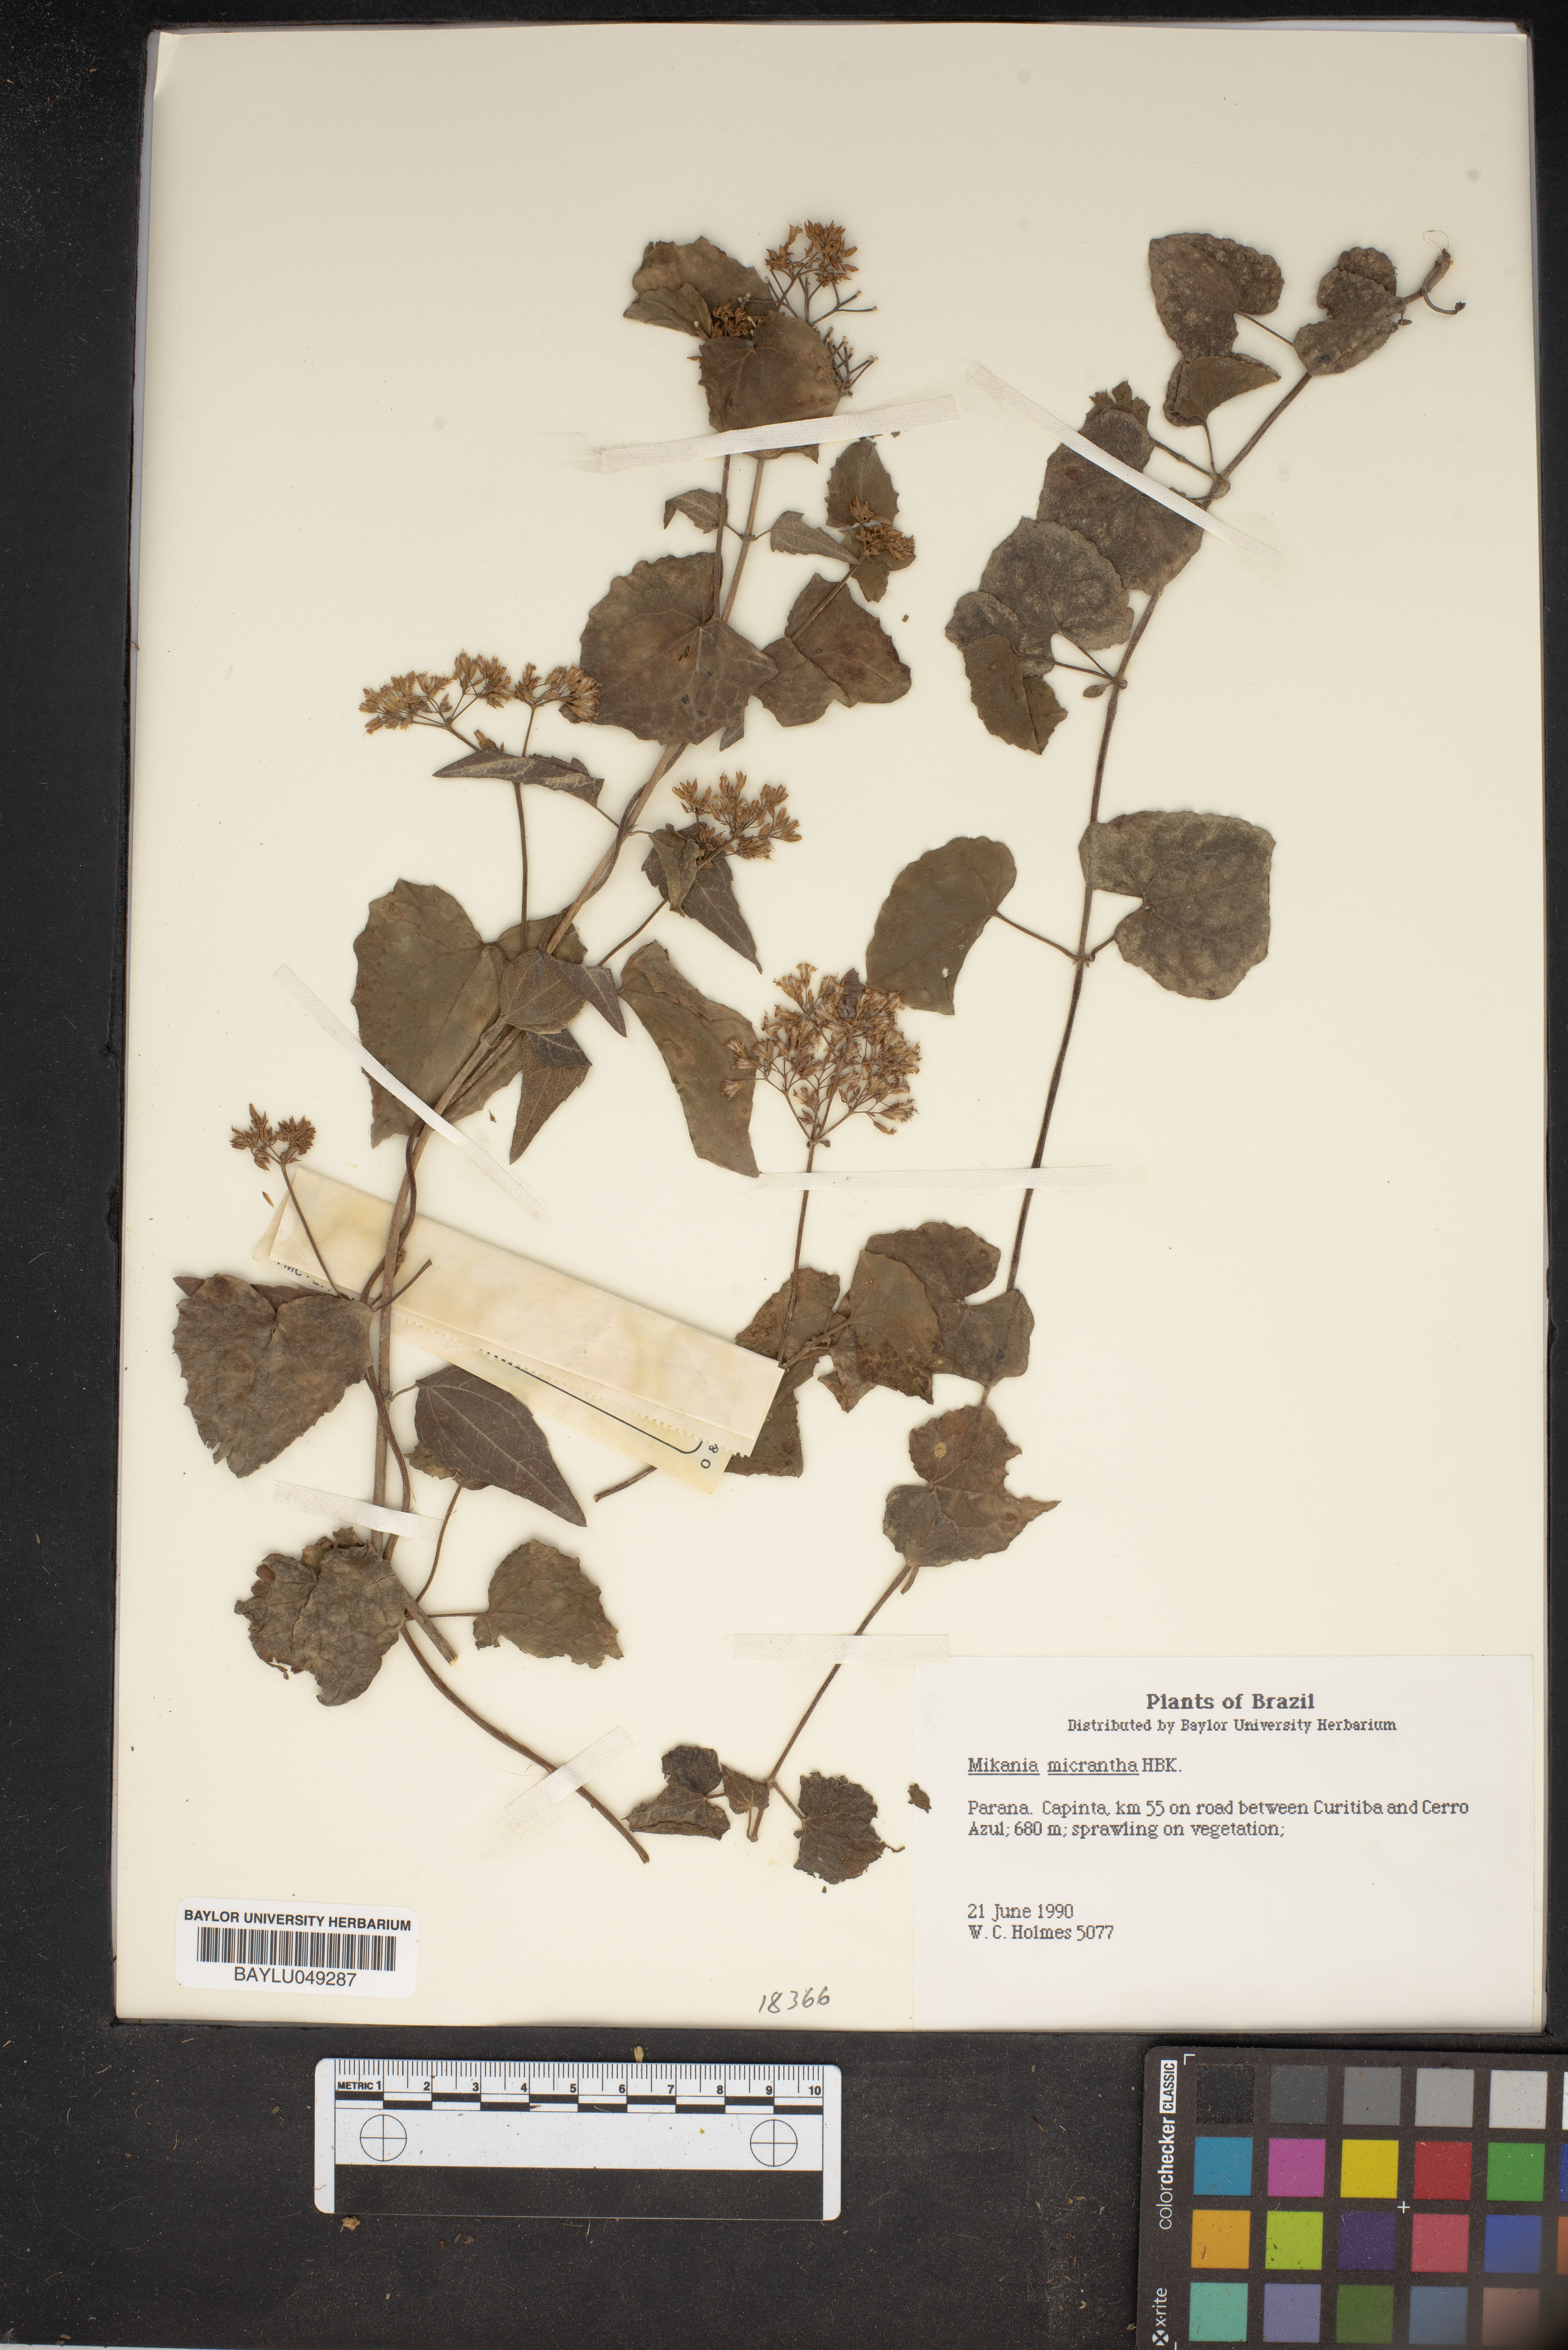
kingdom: Plantae
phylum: Tracheophyta
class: Magnoliopsida
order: Asterales
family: Asteraceae
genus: Mikania
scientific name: Mikania micrantha
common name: Mile-a-minute
